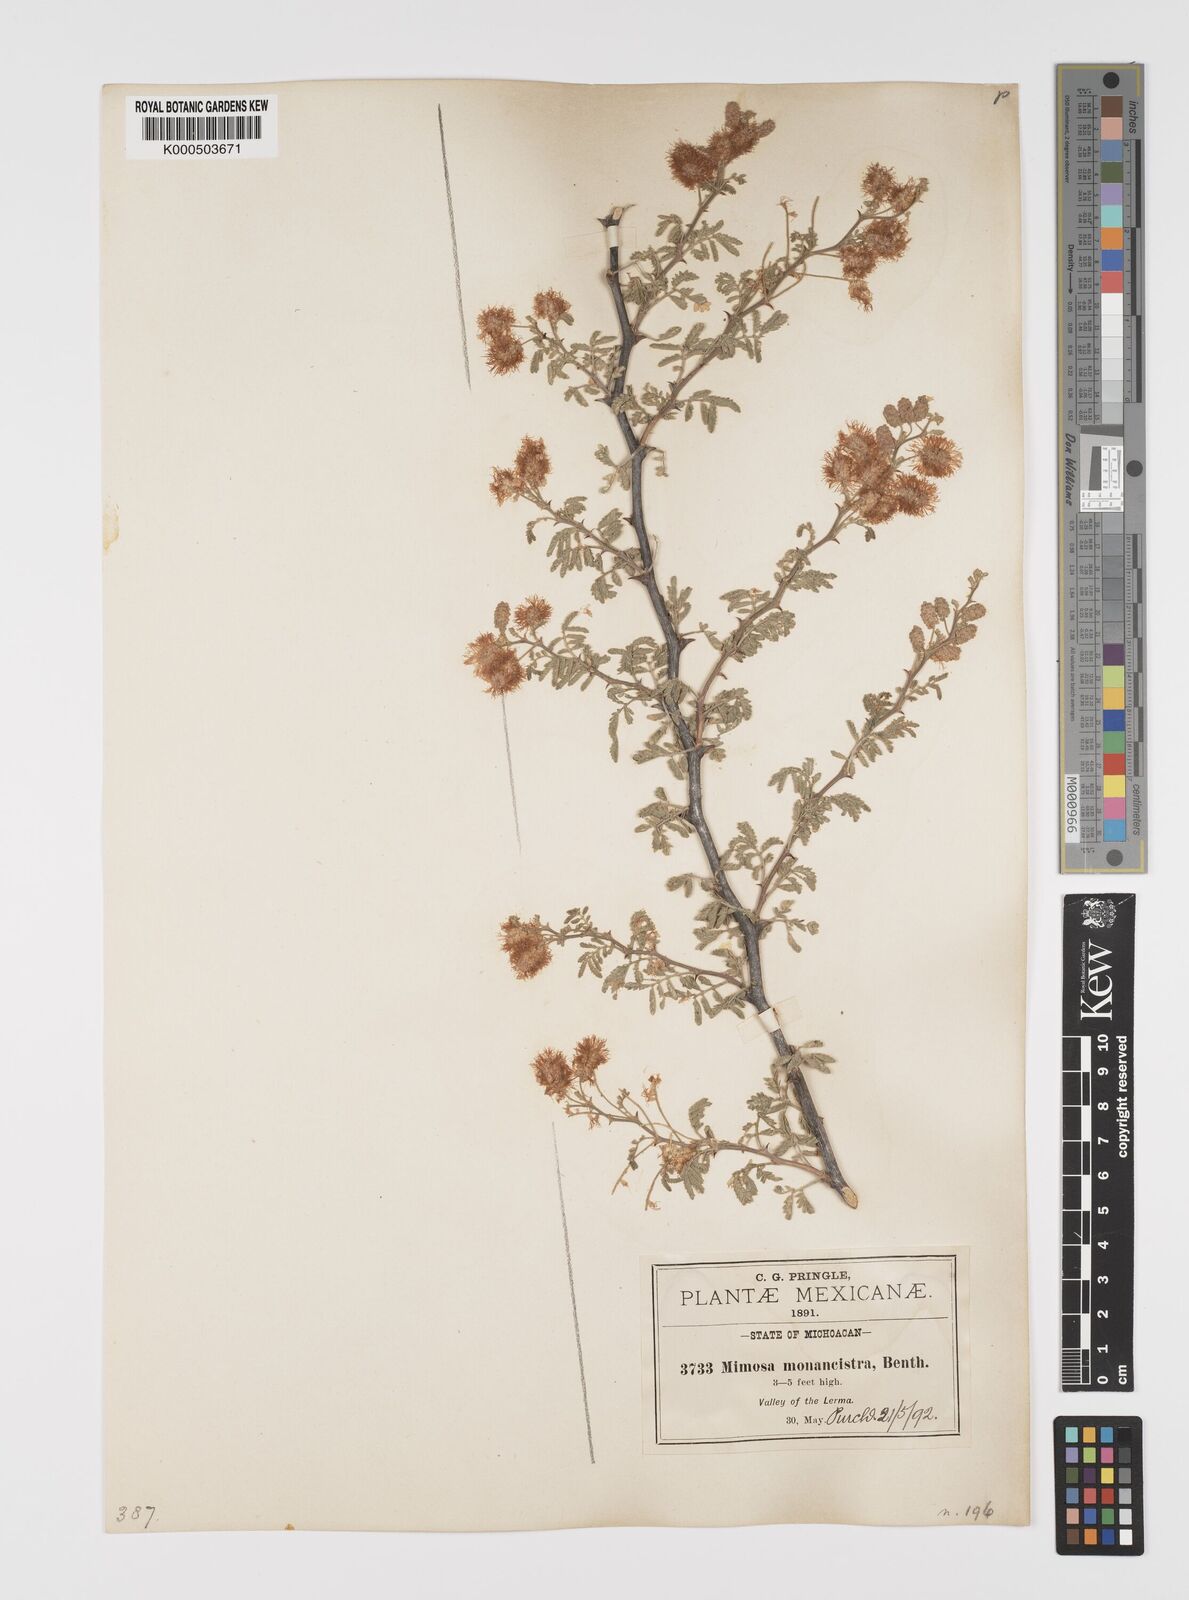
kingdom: Plantae
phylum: Tracheophyta
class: Magnoliopsida
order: Fabales
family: Fabaceae
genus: Mimosa
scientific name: Mimosa monancistra
